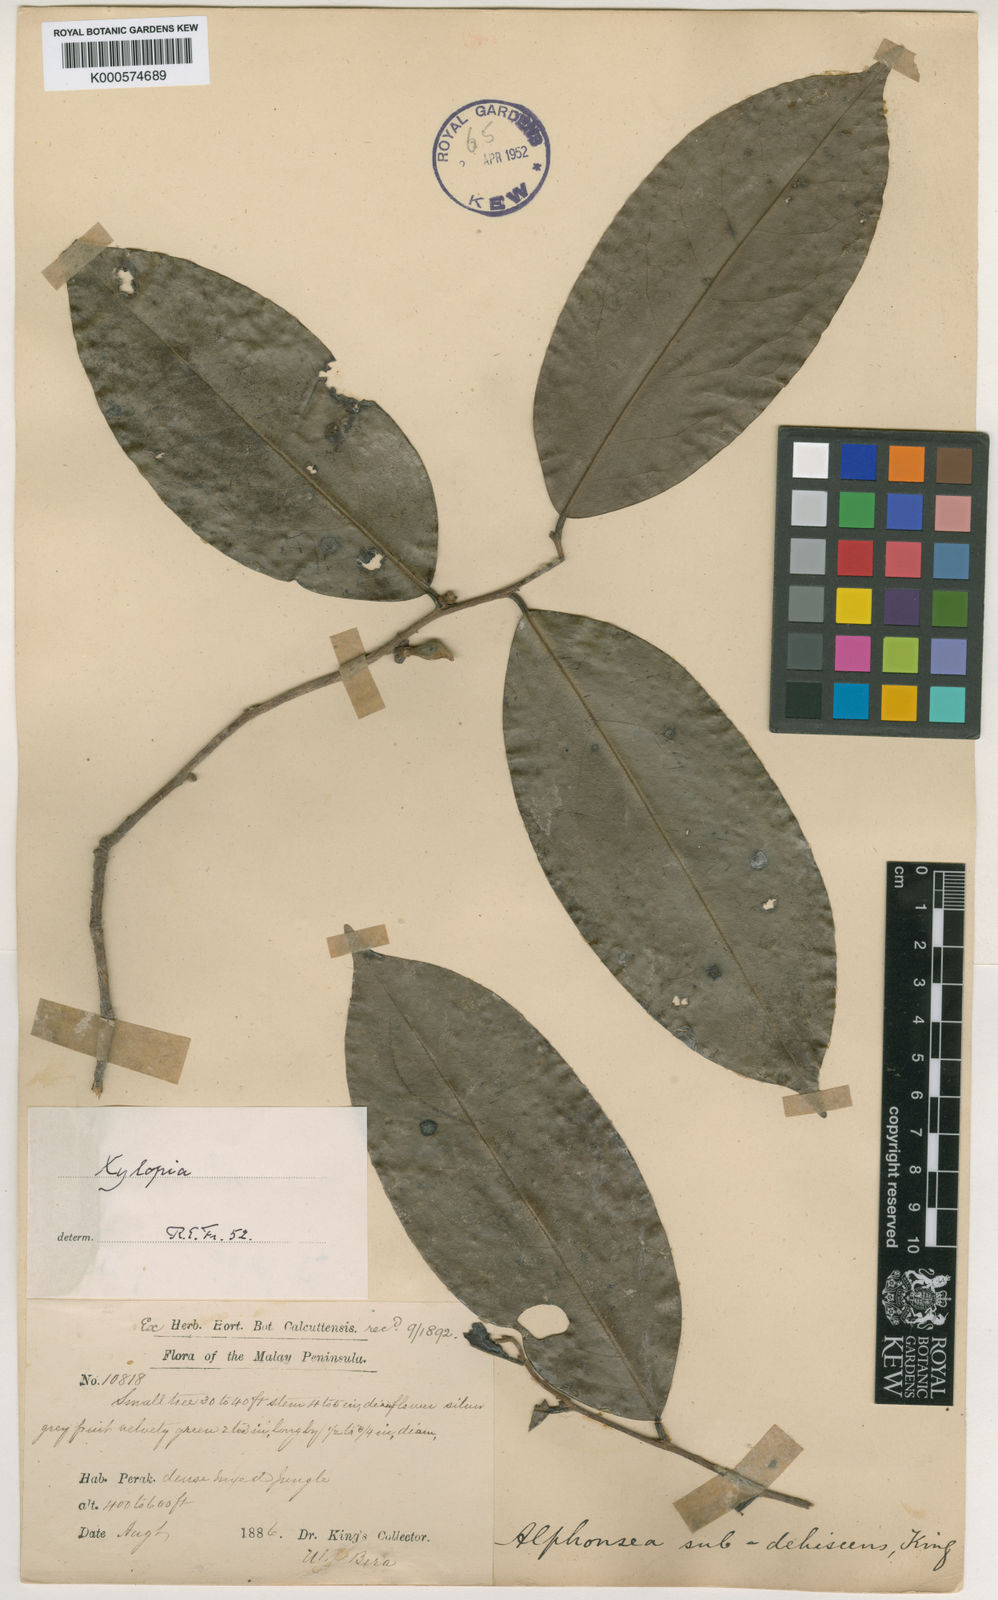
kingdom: Plantae
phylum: Tracheophyta
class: Magnoliopsida
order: Magnoliales
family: Annonaceae
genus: Xylopia
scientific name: Xylopia subdehiscens
